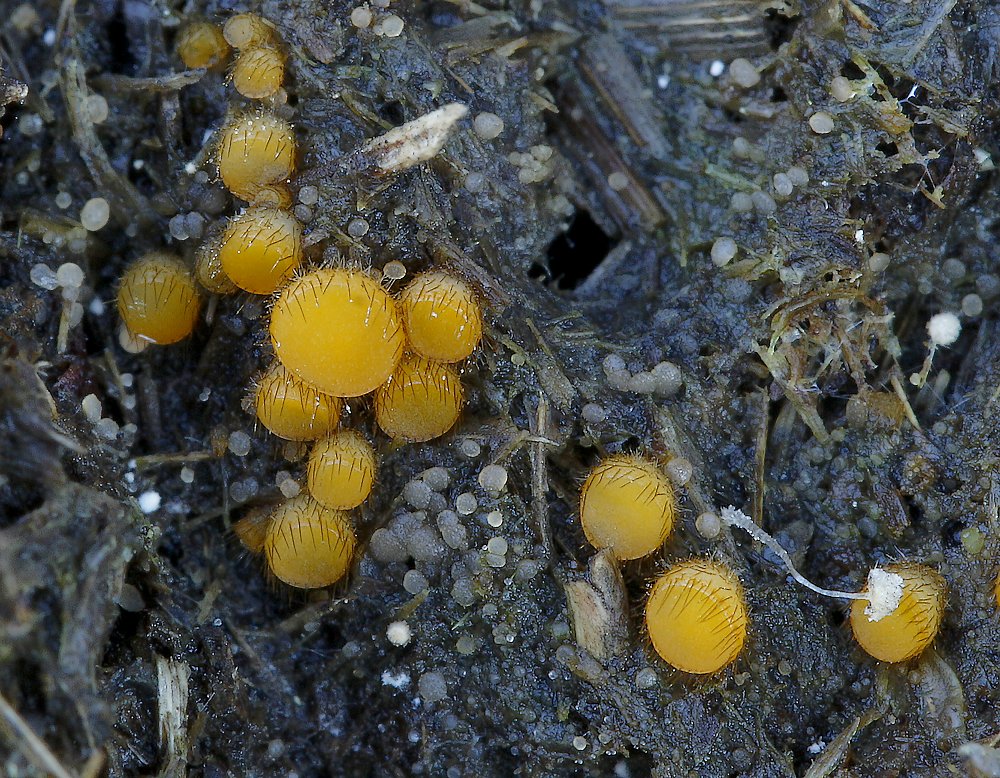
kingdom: Fungi
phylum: Ascomycota
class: Pezizomycetes
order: Pezizales
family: Pyronemataceae
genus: Cheilymenia
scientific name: Cheilymenia
